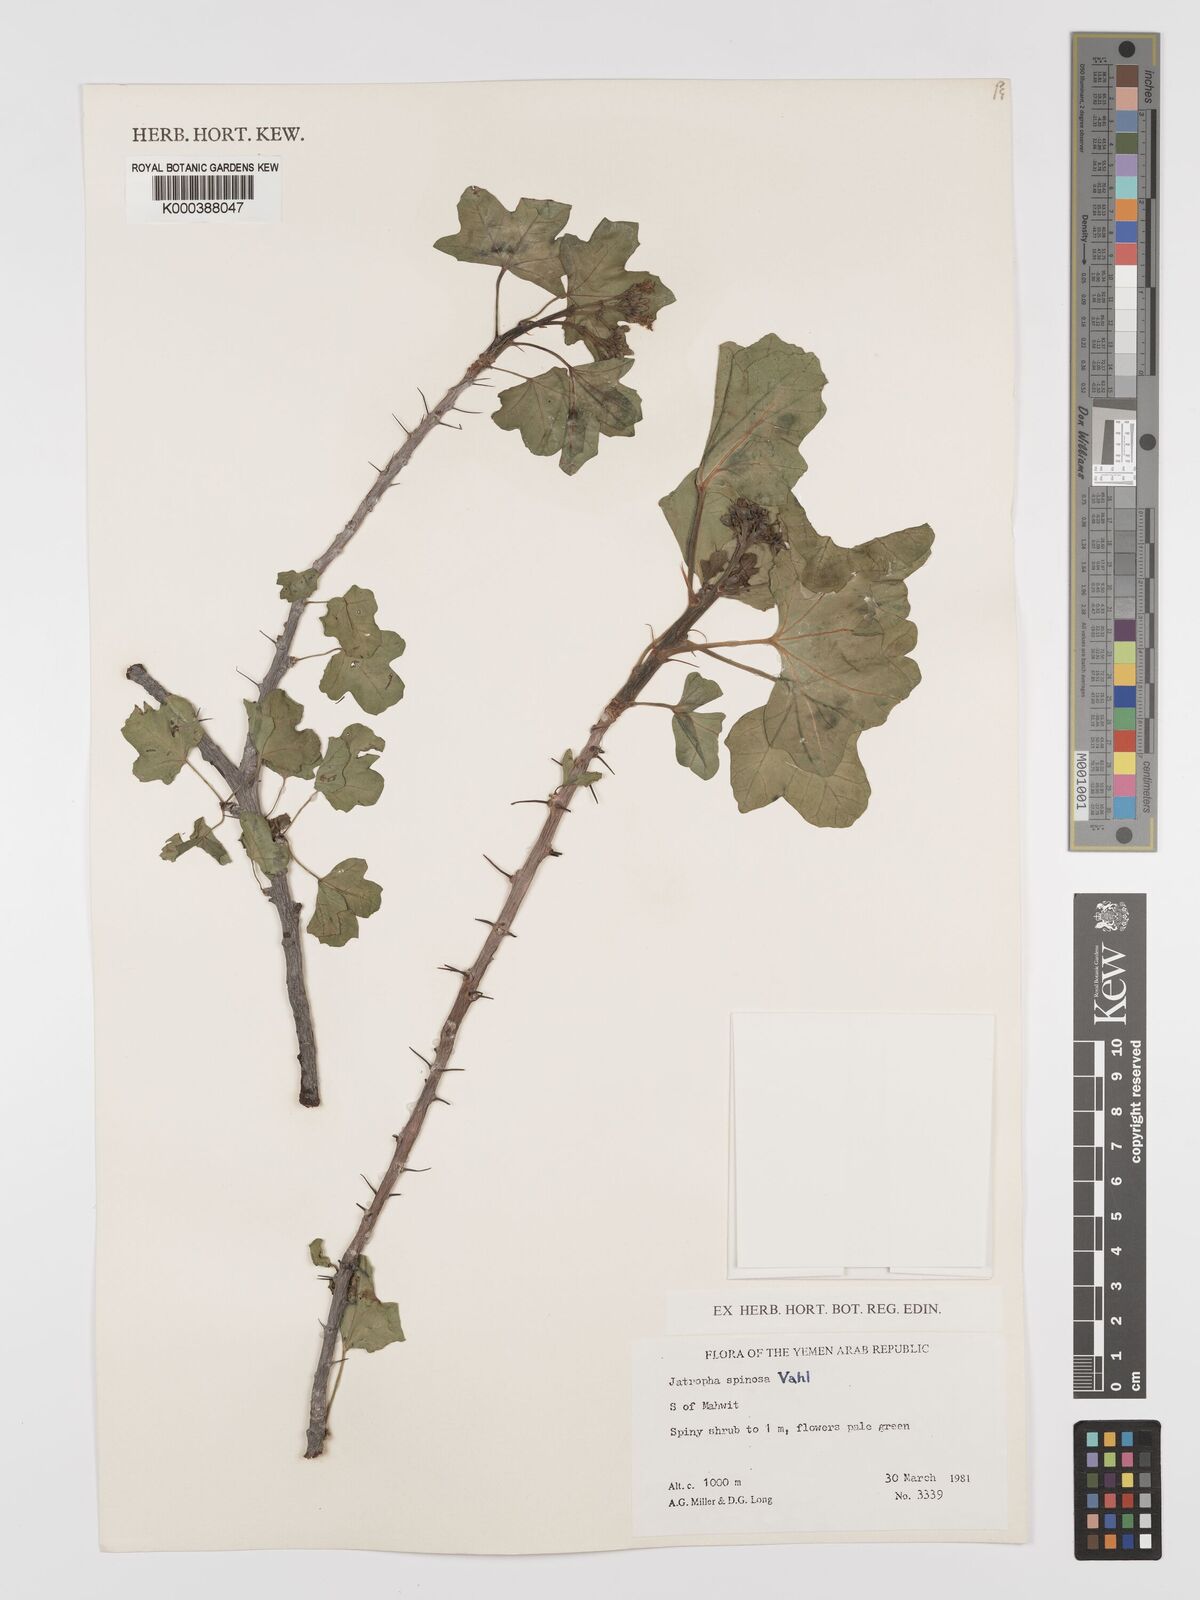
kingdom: Plantae
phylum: Tracheophyta
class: Magnoliopsida
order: Malpighiales
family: Euphorbiaceae
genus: Jatropha
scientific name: Jatropha spinosa
